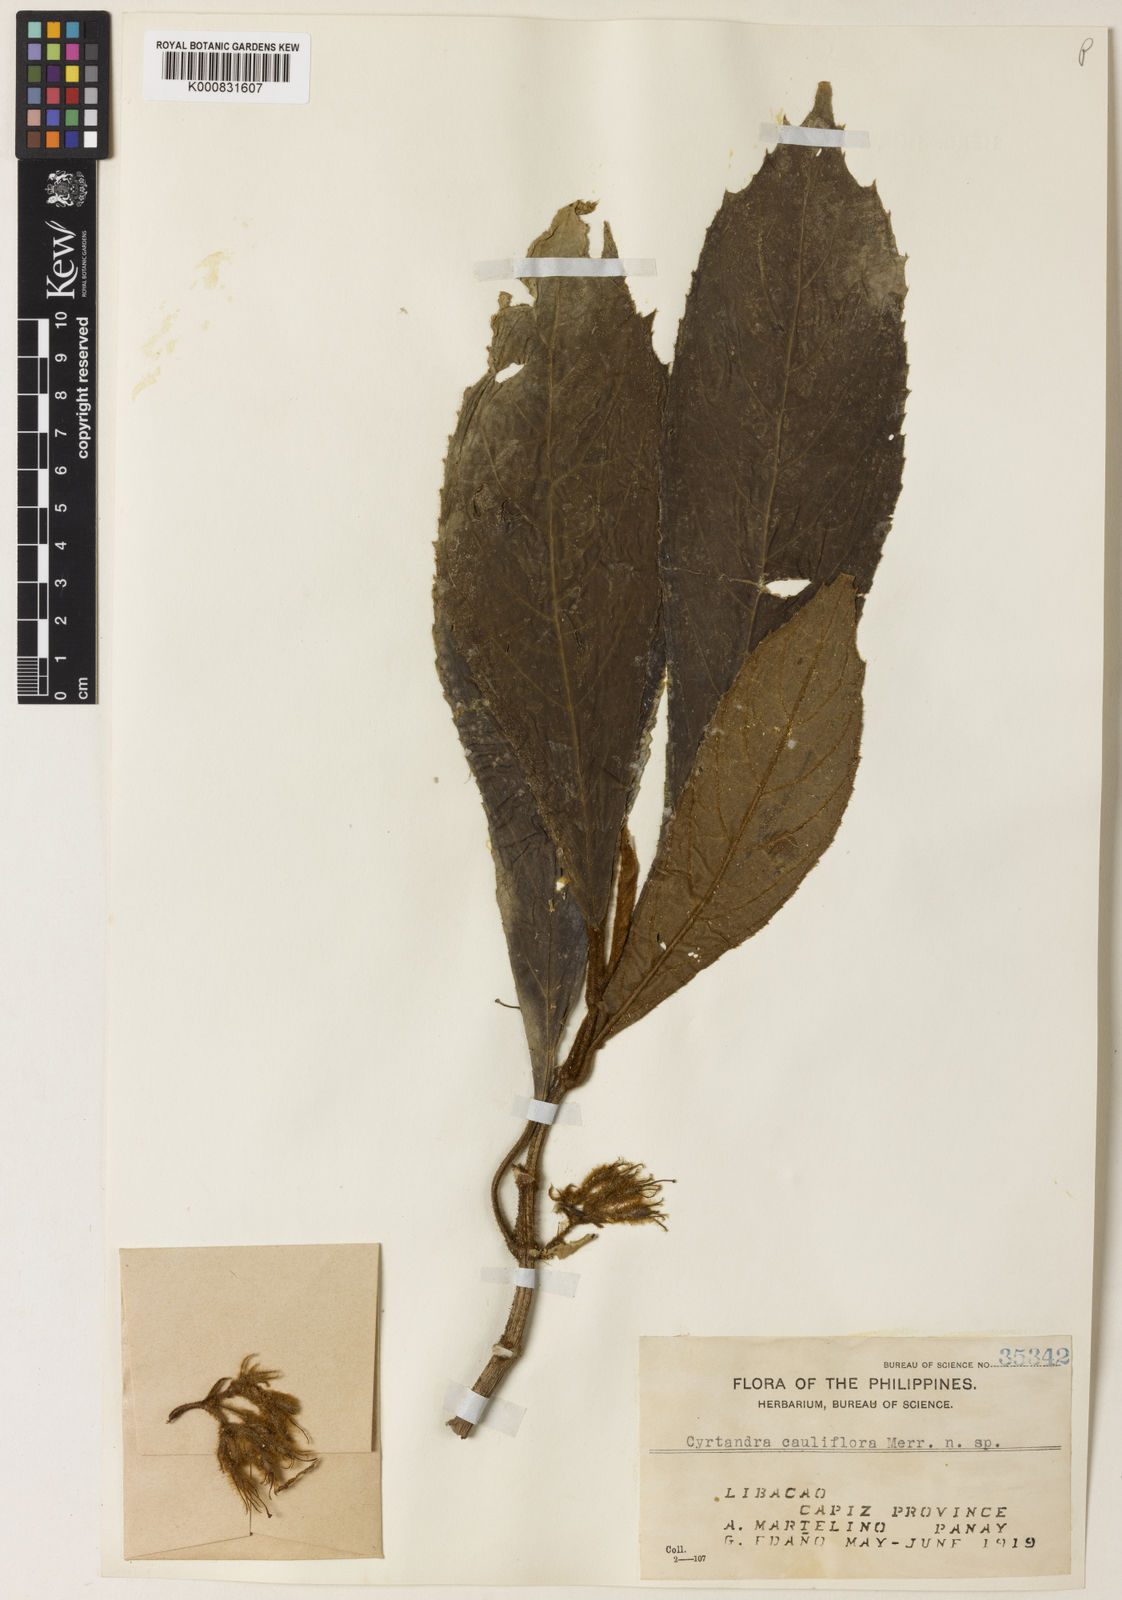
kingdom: Plantae
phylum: Tracheophyta
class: Magnoliopsida
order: Lamiales
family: Gesneriaceae
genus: Cyrtandra
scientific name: Cyrtandra cauliflora
